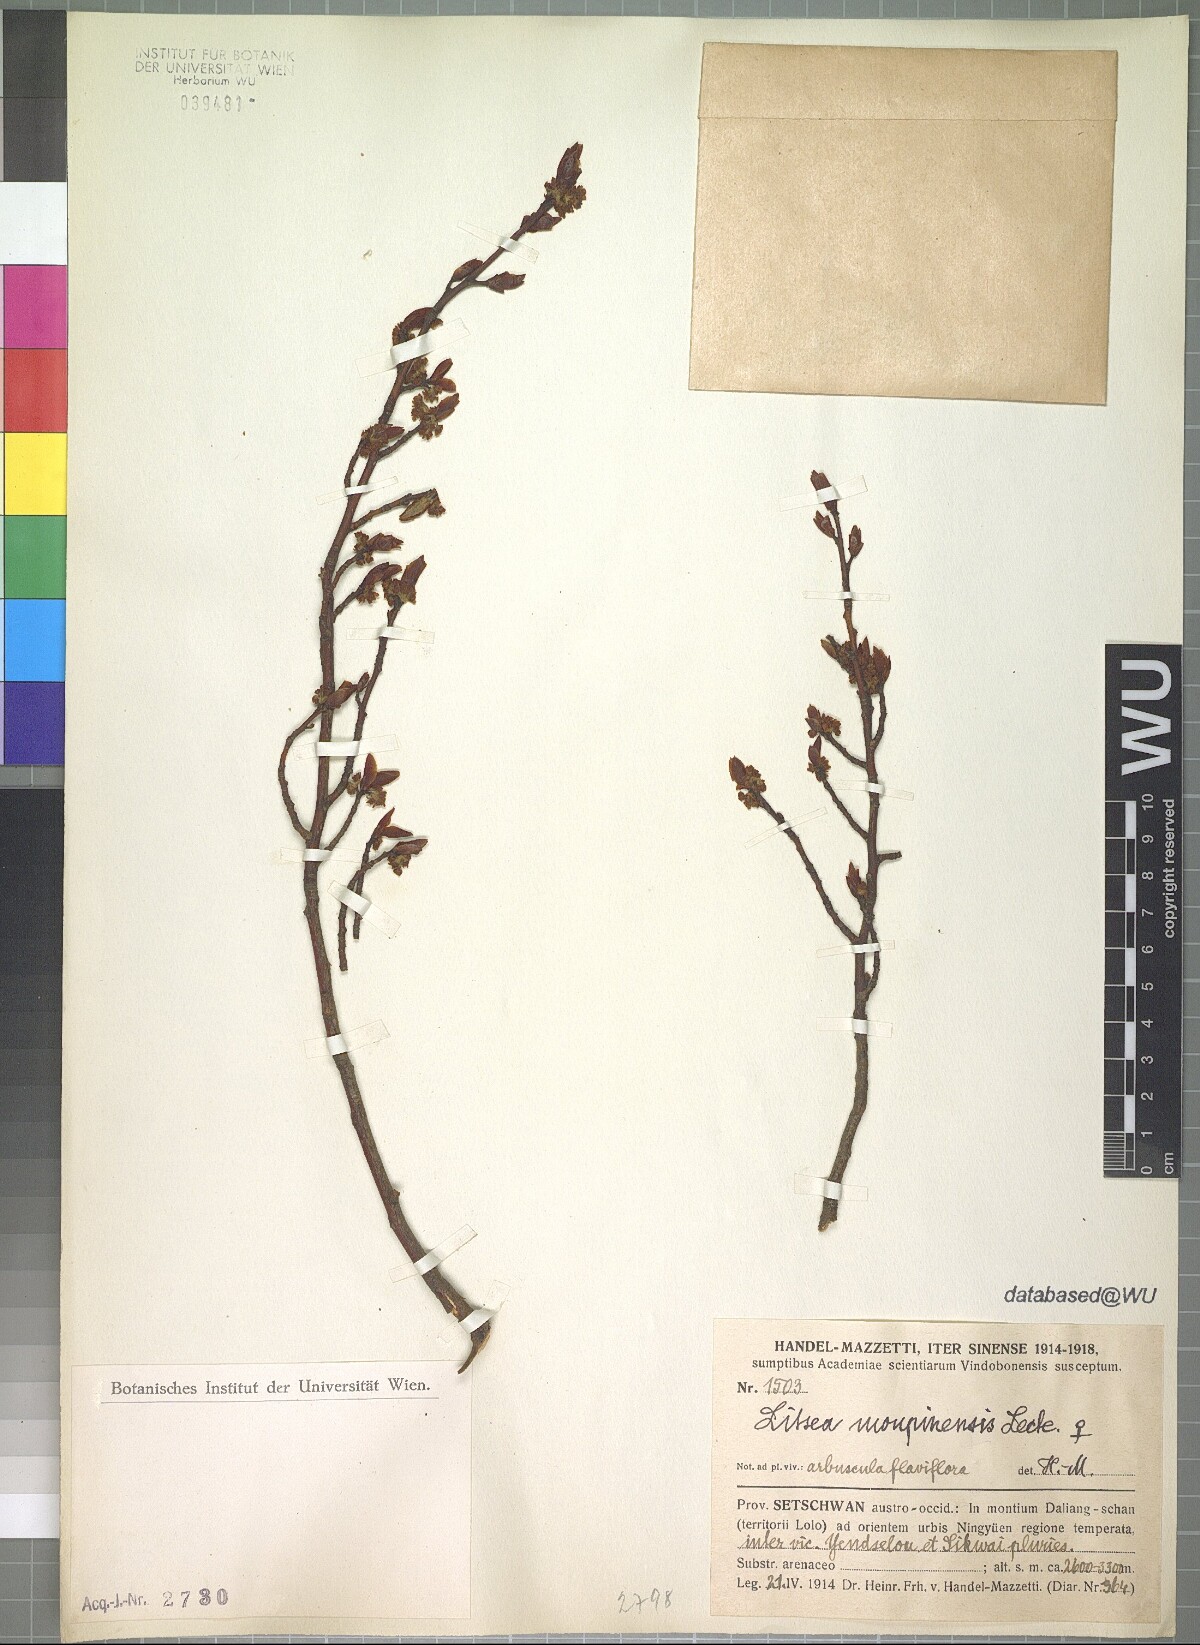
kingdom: Plantae
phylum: Tracheophyta
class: Magnoliopsida
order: Laurales
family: Lauraceae
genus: Litsea
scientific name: Litsea moupinensis
